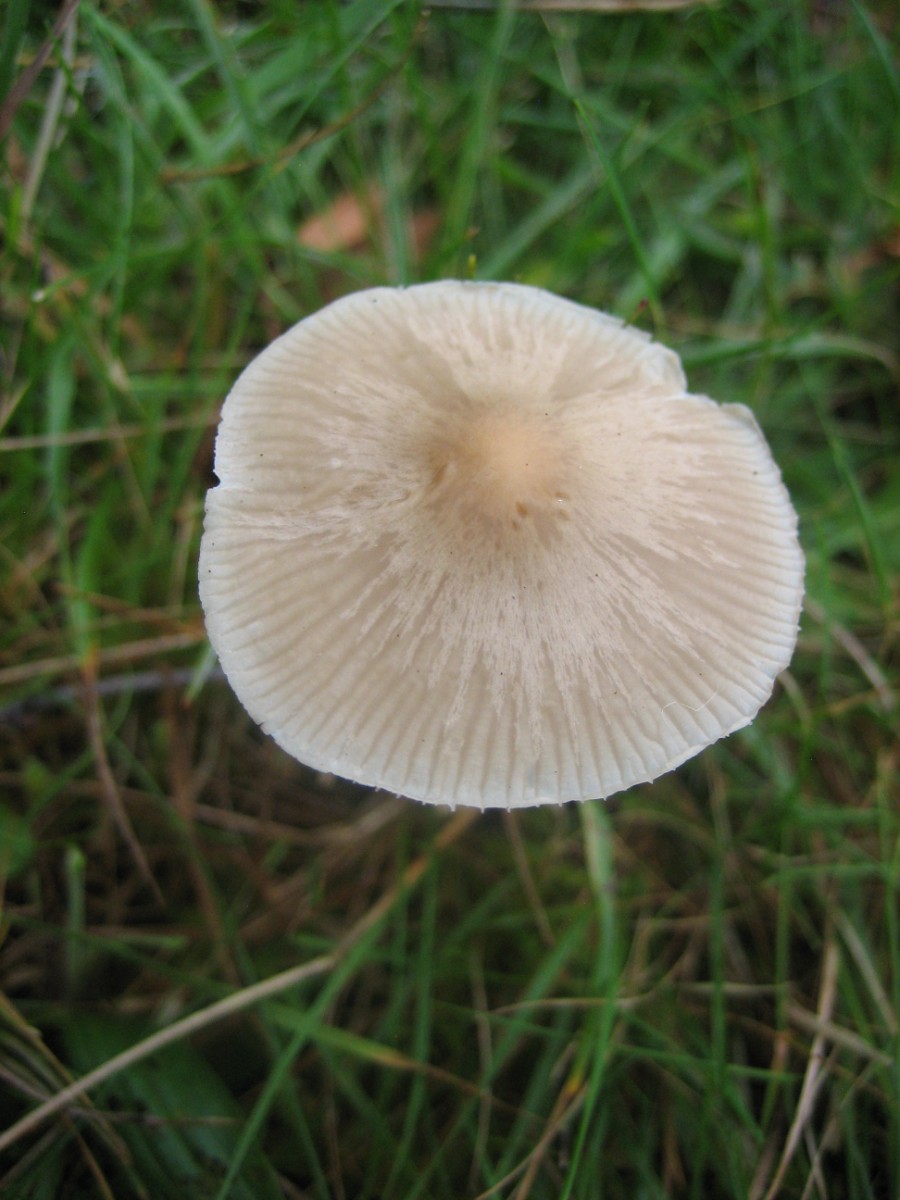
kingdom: Fungi
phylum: Basidiomycota
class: Agaricomycetes
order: Agaricales
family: Mycenaceae
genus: Mycena
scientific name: Mycena galericulata
